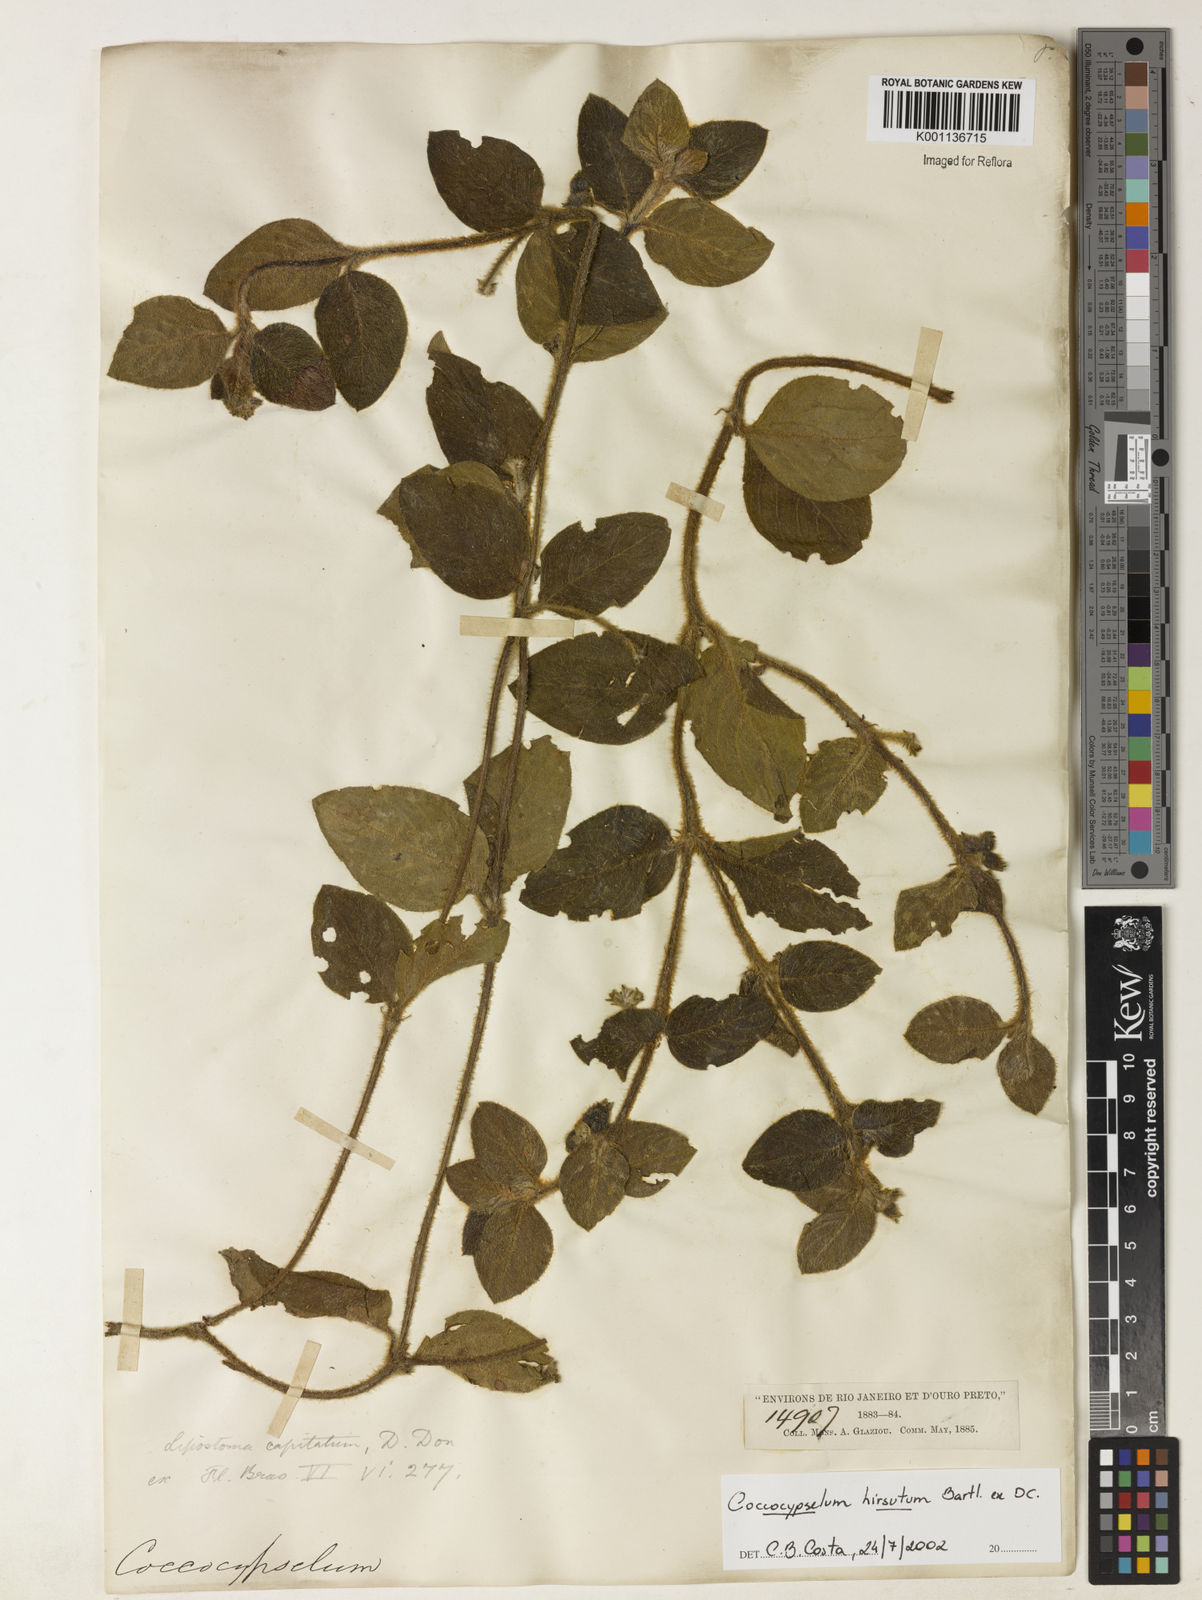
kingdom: Plantae
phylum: Tracheophyta
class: Magnoliopsida
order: Gentianales
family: Rubiaceae
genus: Coccocypselum
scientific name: Coccocypselum hirsutum
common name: Yerba de guava
